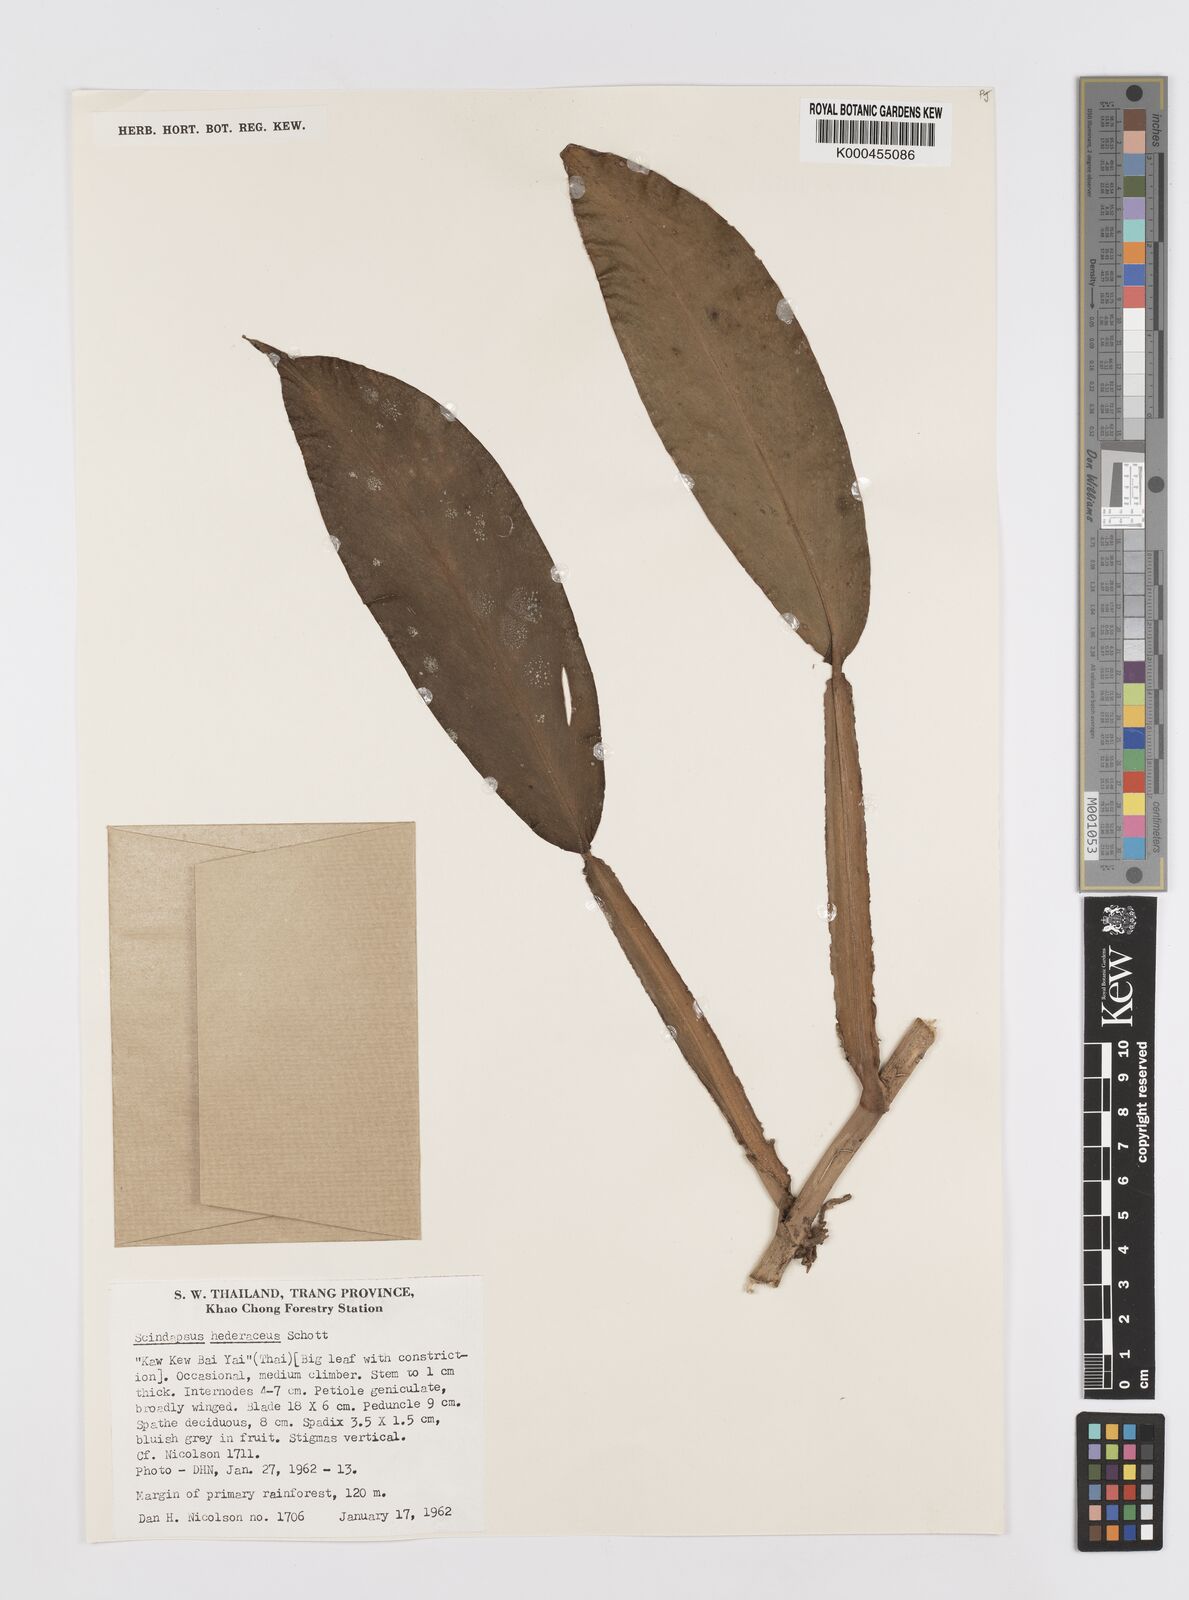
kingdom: Plantae
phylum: Tracheophyta
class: Liliopsida
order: Alismatales
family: Araceae
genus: Scindapsus
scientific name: Scindapsus hederaceus
